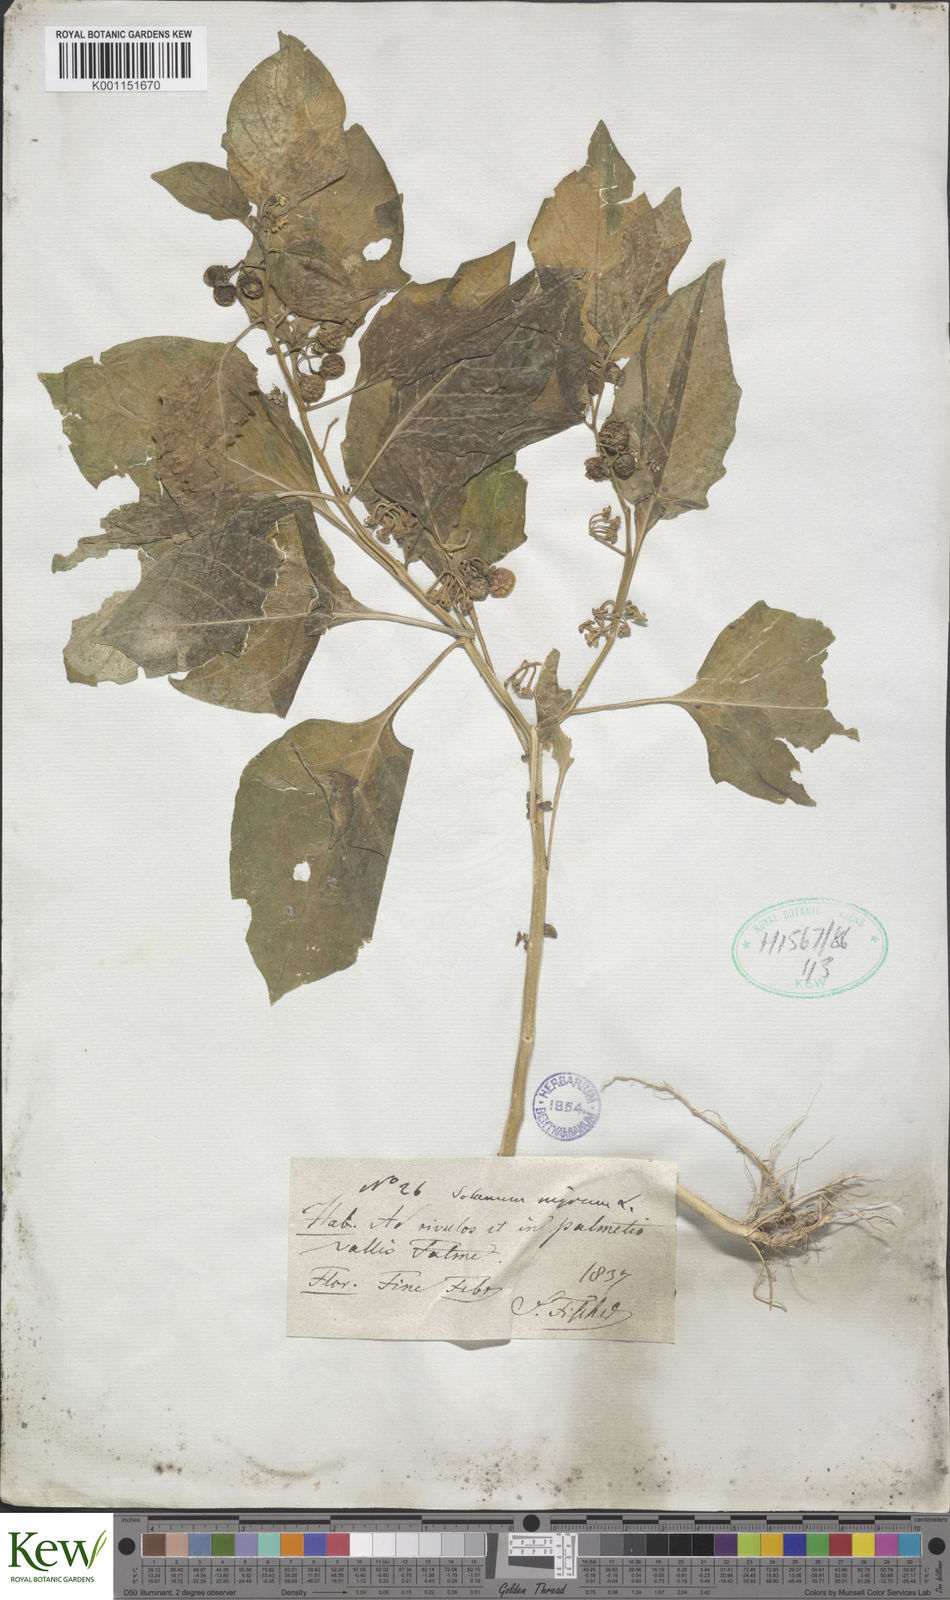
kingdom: Plantae
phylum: Tracheophyta
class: Magnoliopsida
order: Solanales
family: Solanaceae
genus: Solanum
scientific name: Solanum nigrum
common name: Black nightshade
